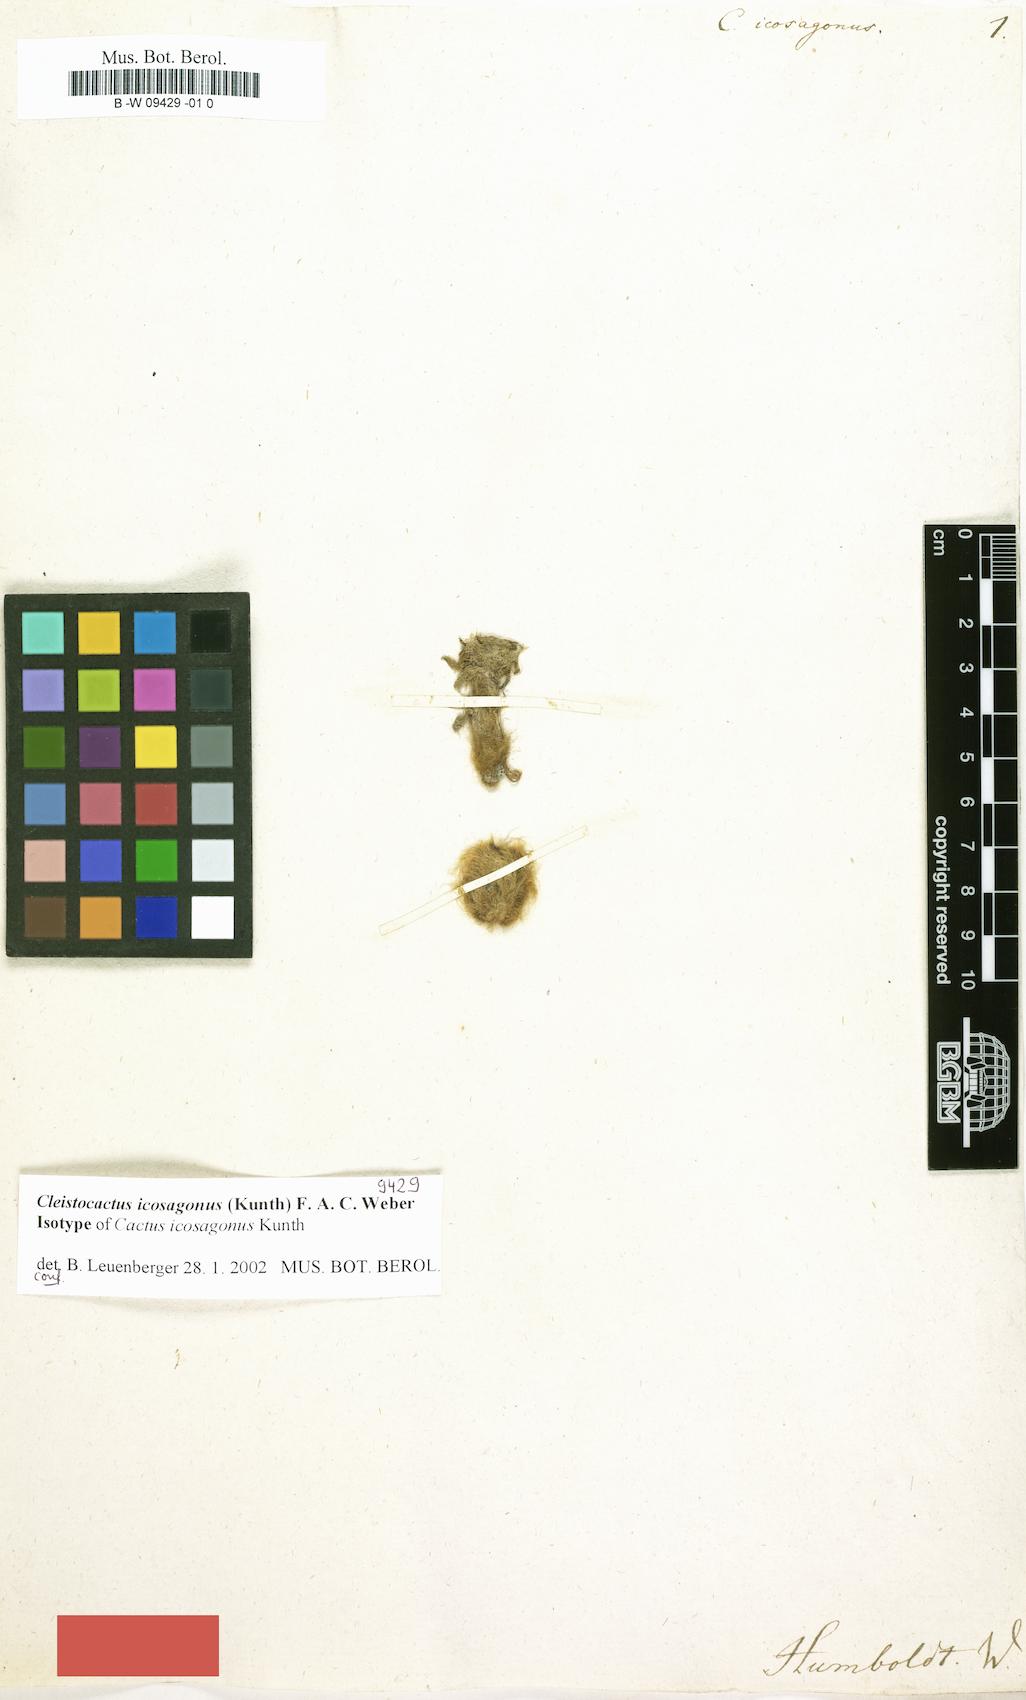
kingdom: Plantae
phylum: Tracheophyta
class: Magnoliopsida
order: Caryophyllales
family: Cactaceae
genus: Borzicactus
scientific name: Borzicactus icosagonus
